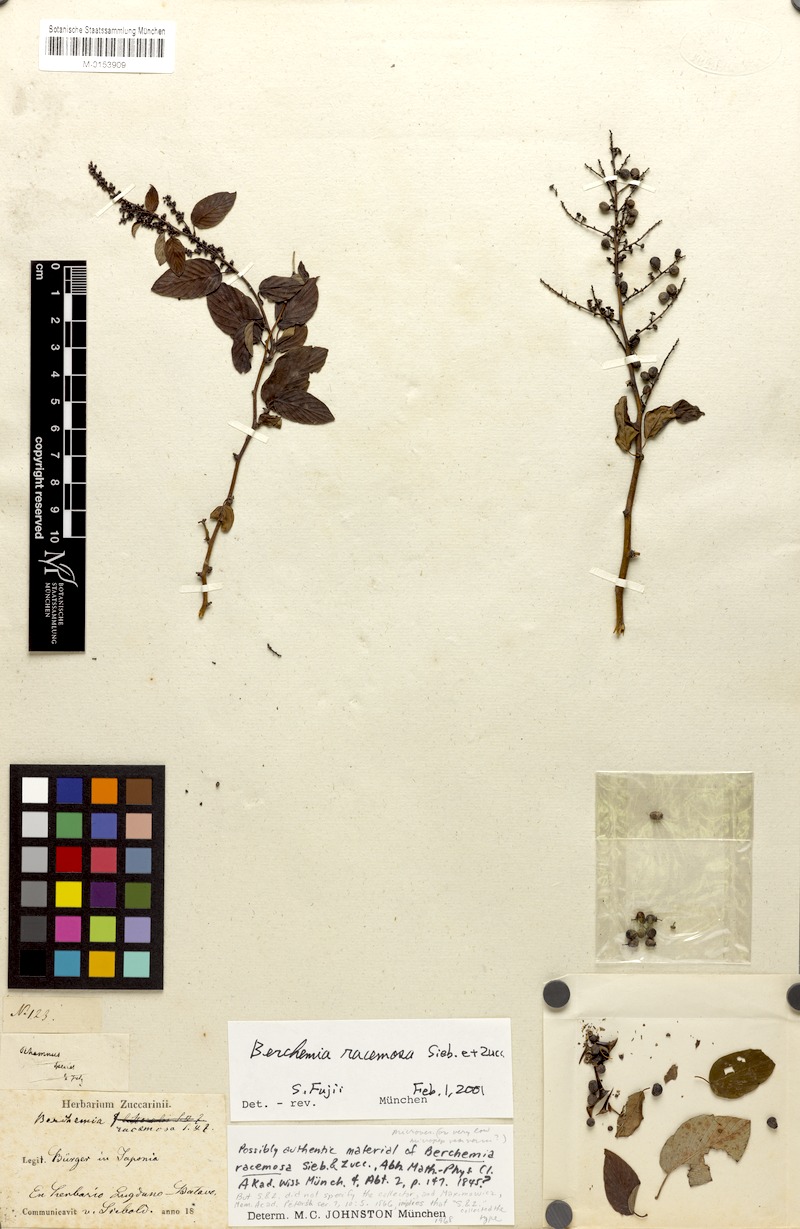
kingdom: Plantae
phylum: Tracheophyta
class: Magnoliopsida
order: Rosales
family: Rhamnaceae
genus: Berchemia
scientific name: Berchemia floribunda
